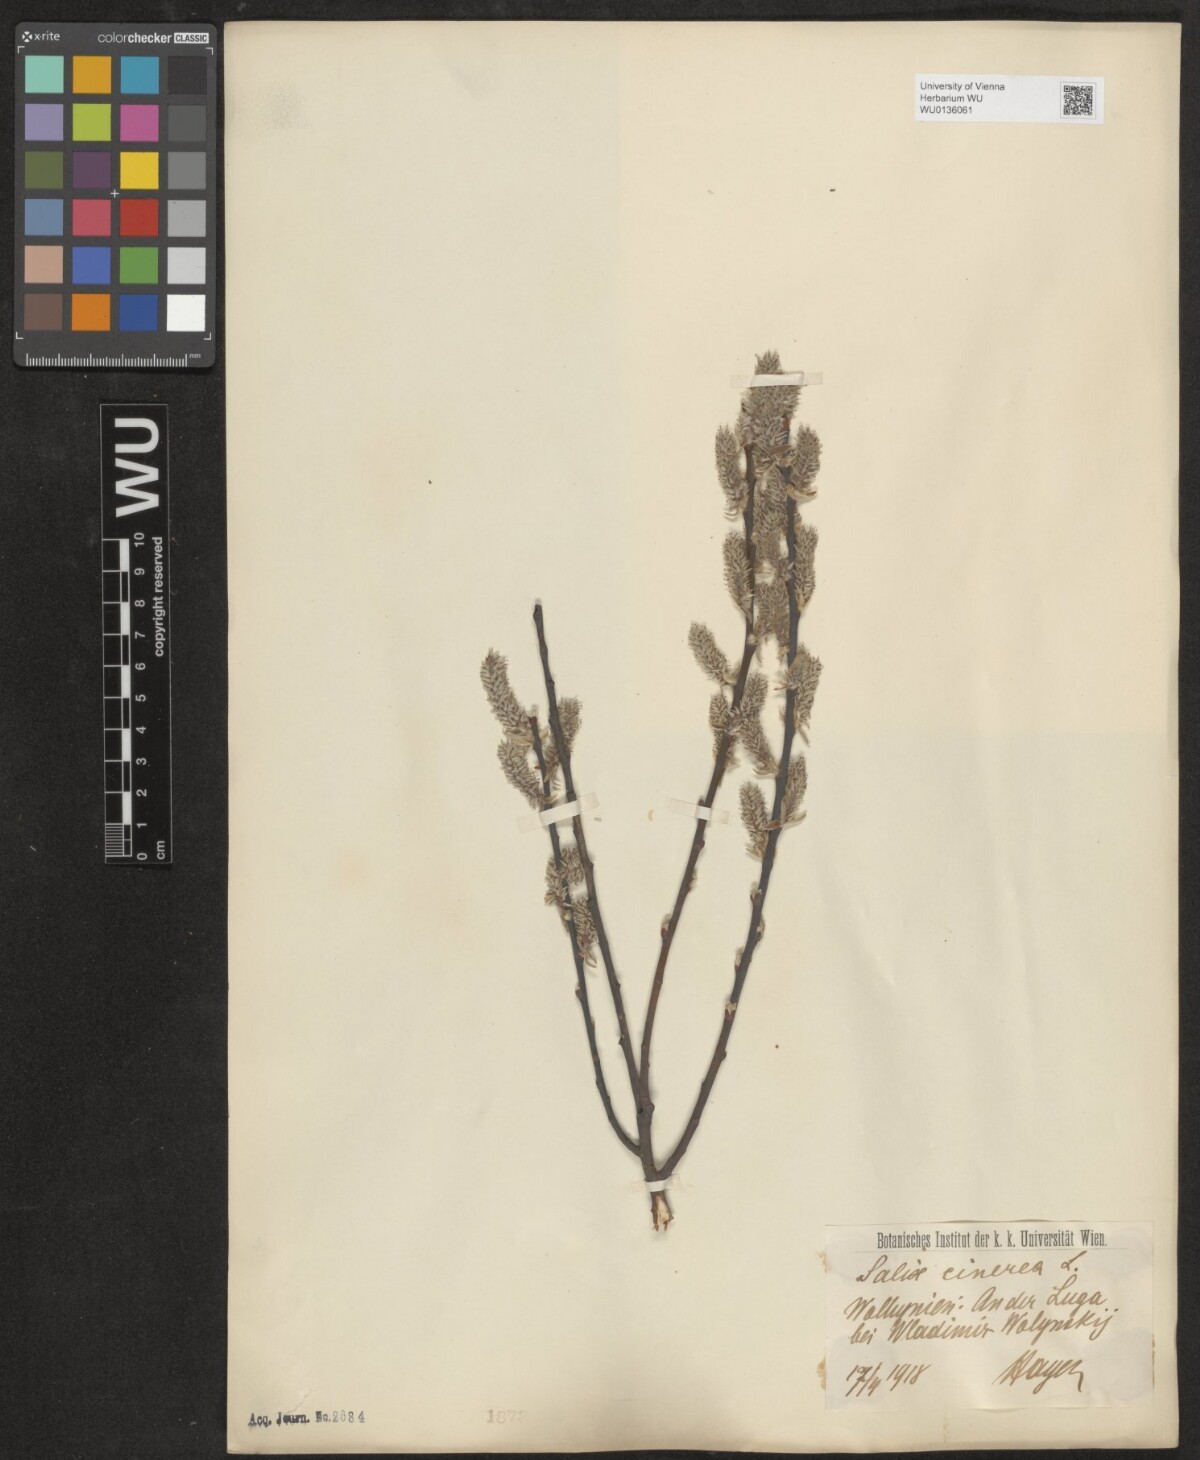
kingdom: Plantae
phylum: Tracheophyta
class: Magnoliopsida
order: Malpighiales
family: Salicaceae
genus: Salix
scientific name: Salix cinerea
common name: Common sallow
